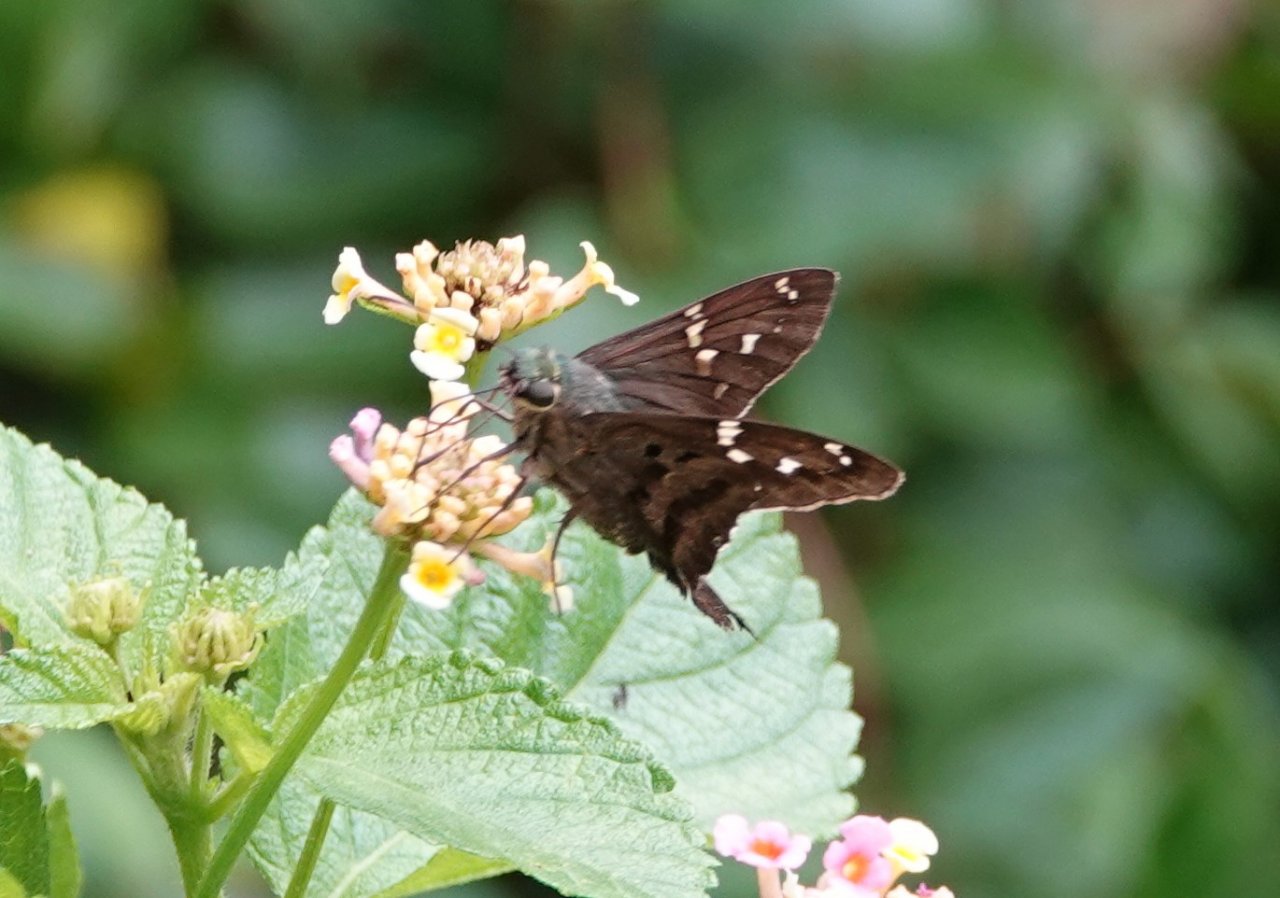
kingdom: Animalia
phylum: Arthropoda
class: Insecta
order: Lepidoptera
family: Hesperiidae
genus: Urbanus
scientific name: Urbanus proteus
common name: Long-tailed Skipper
